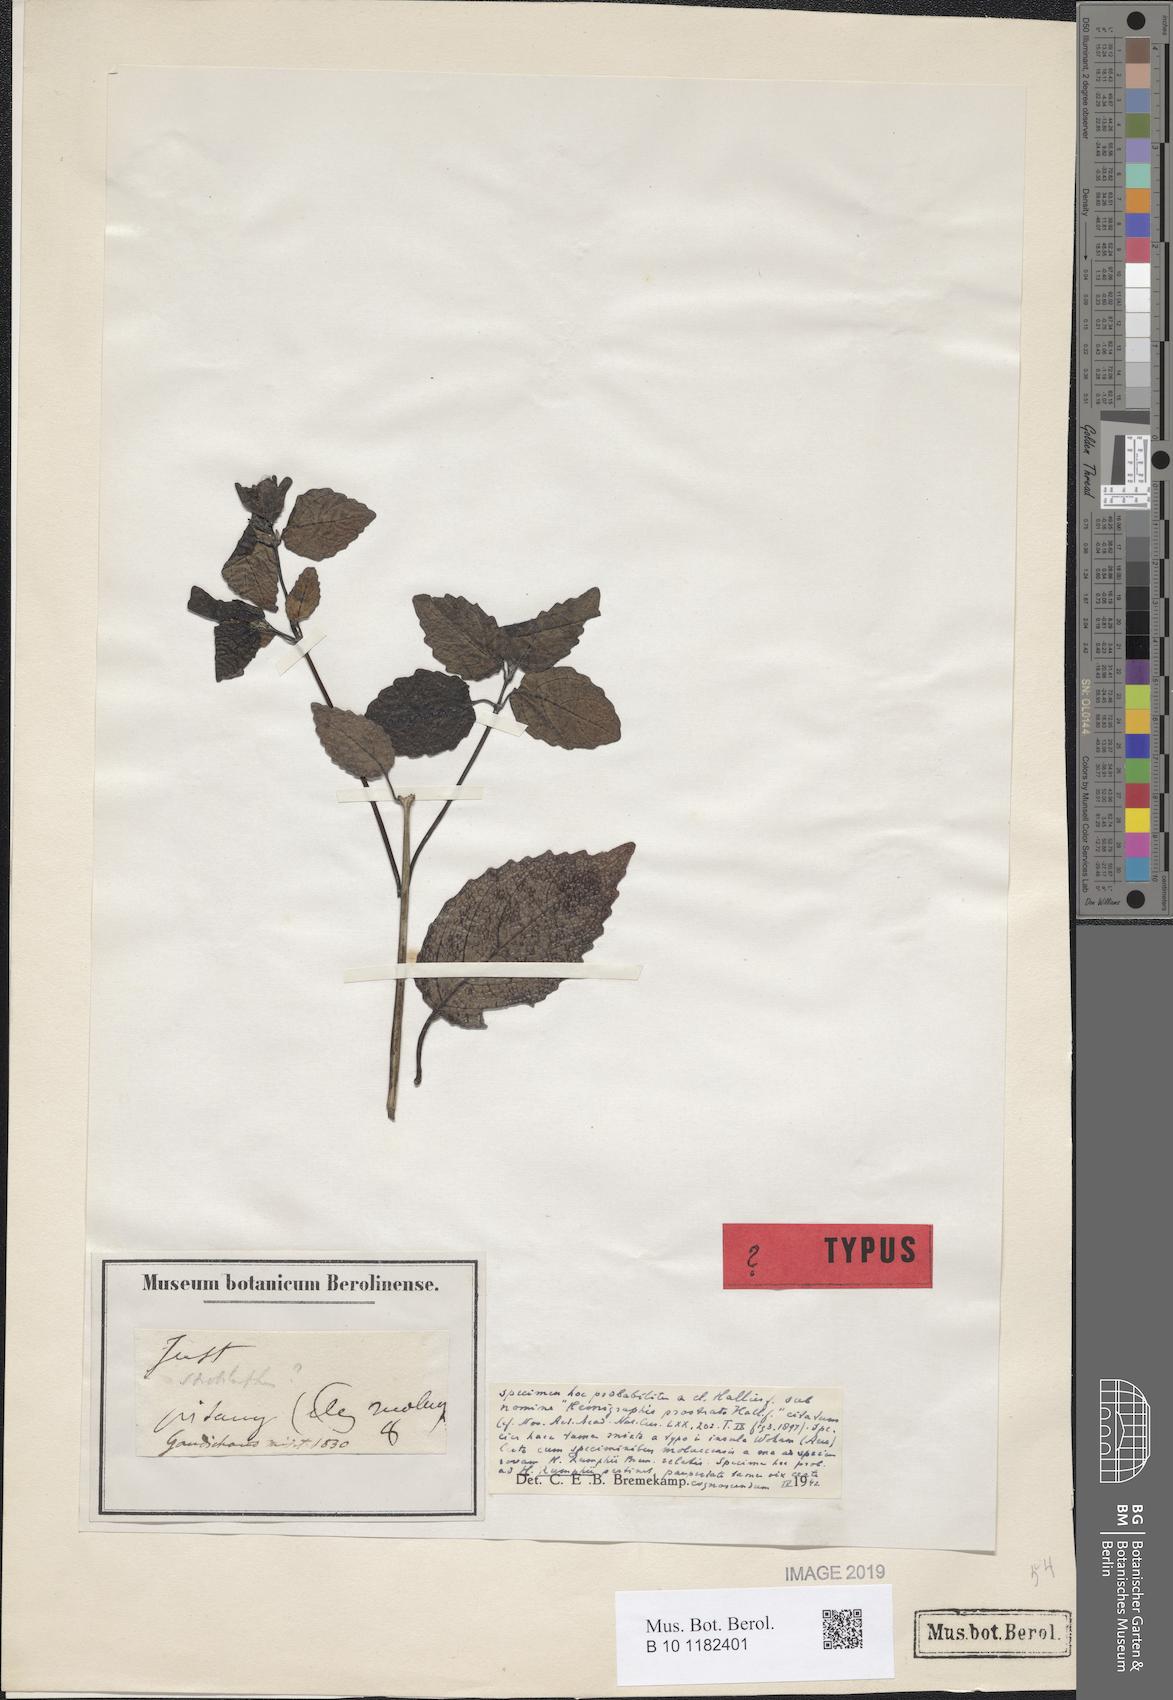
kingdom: Plantae
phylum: Tracheophyta
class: Magnoliopsida
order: Lamiales
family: Acanthaceae
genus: Hemigraphis
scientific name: Hemigraphis prostrata
